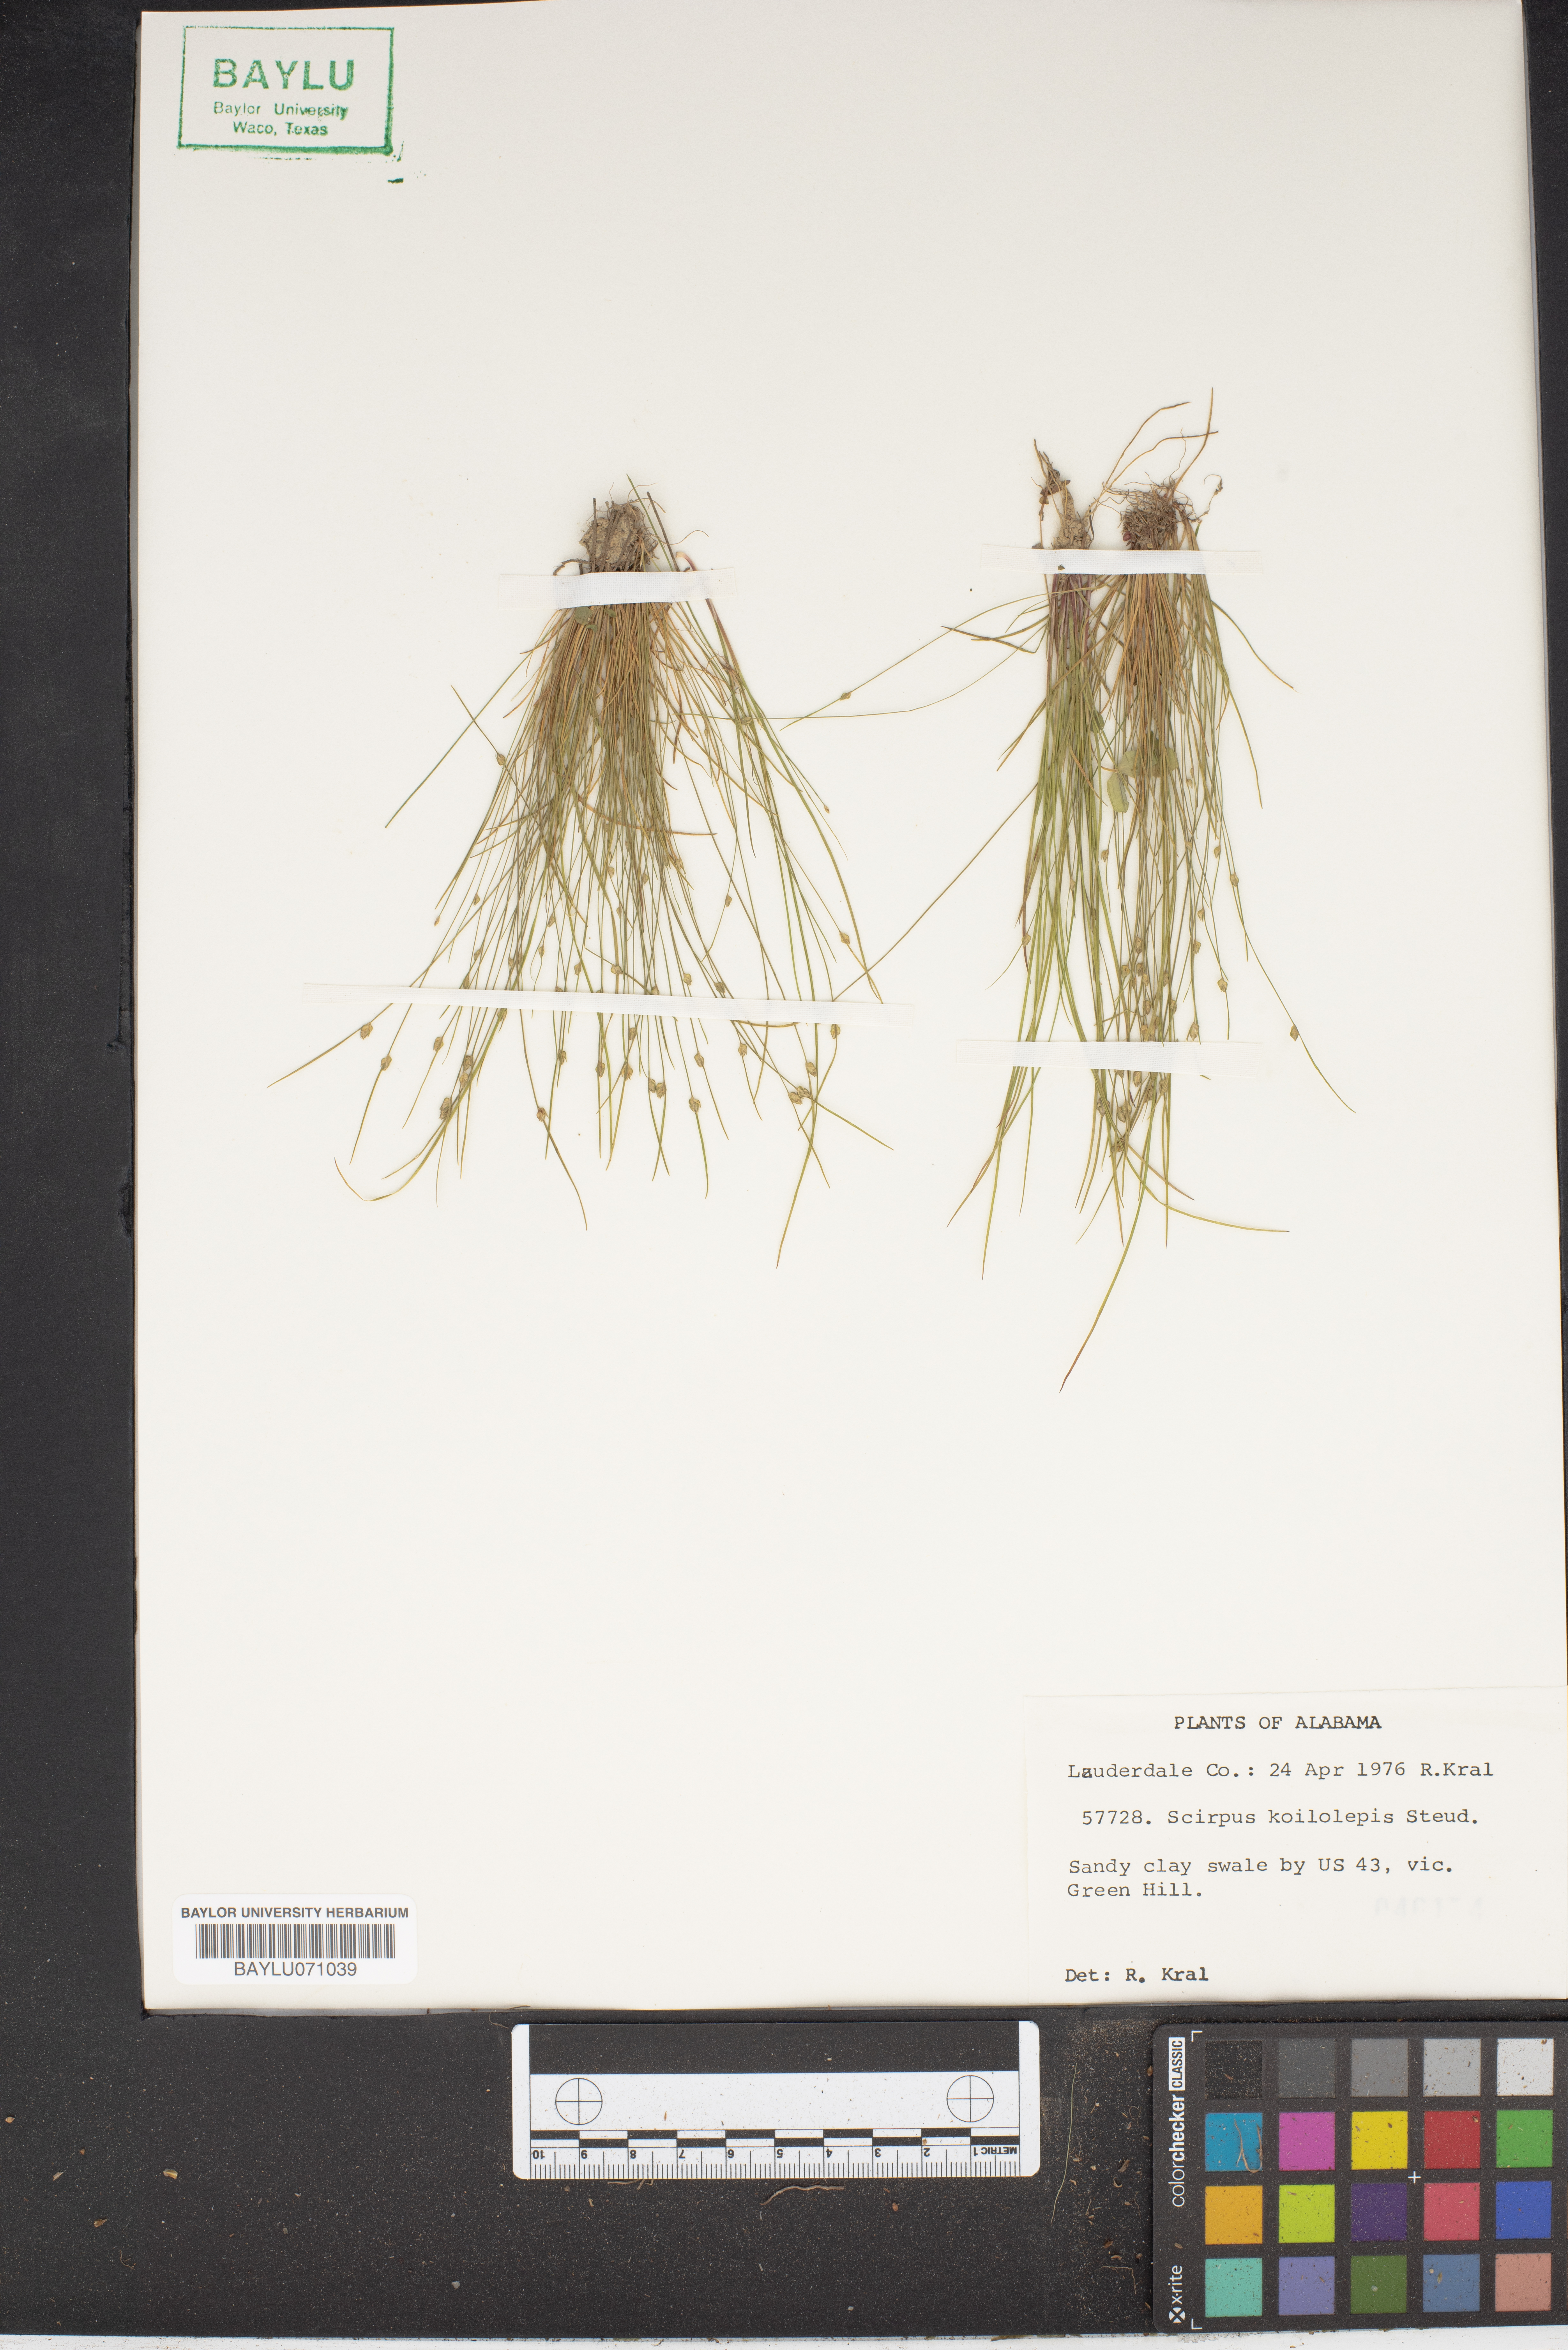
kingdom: Plantae
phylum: Tracheophyta
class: Liliopsida
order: Poales
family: Cyperaceae
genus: Isolepis
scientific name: Isolepis carinata
